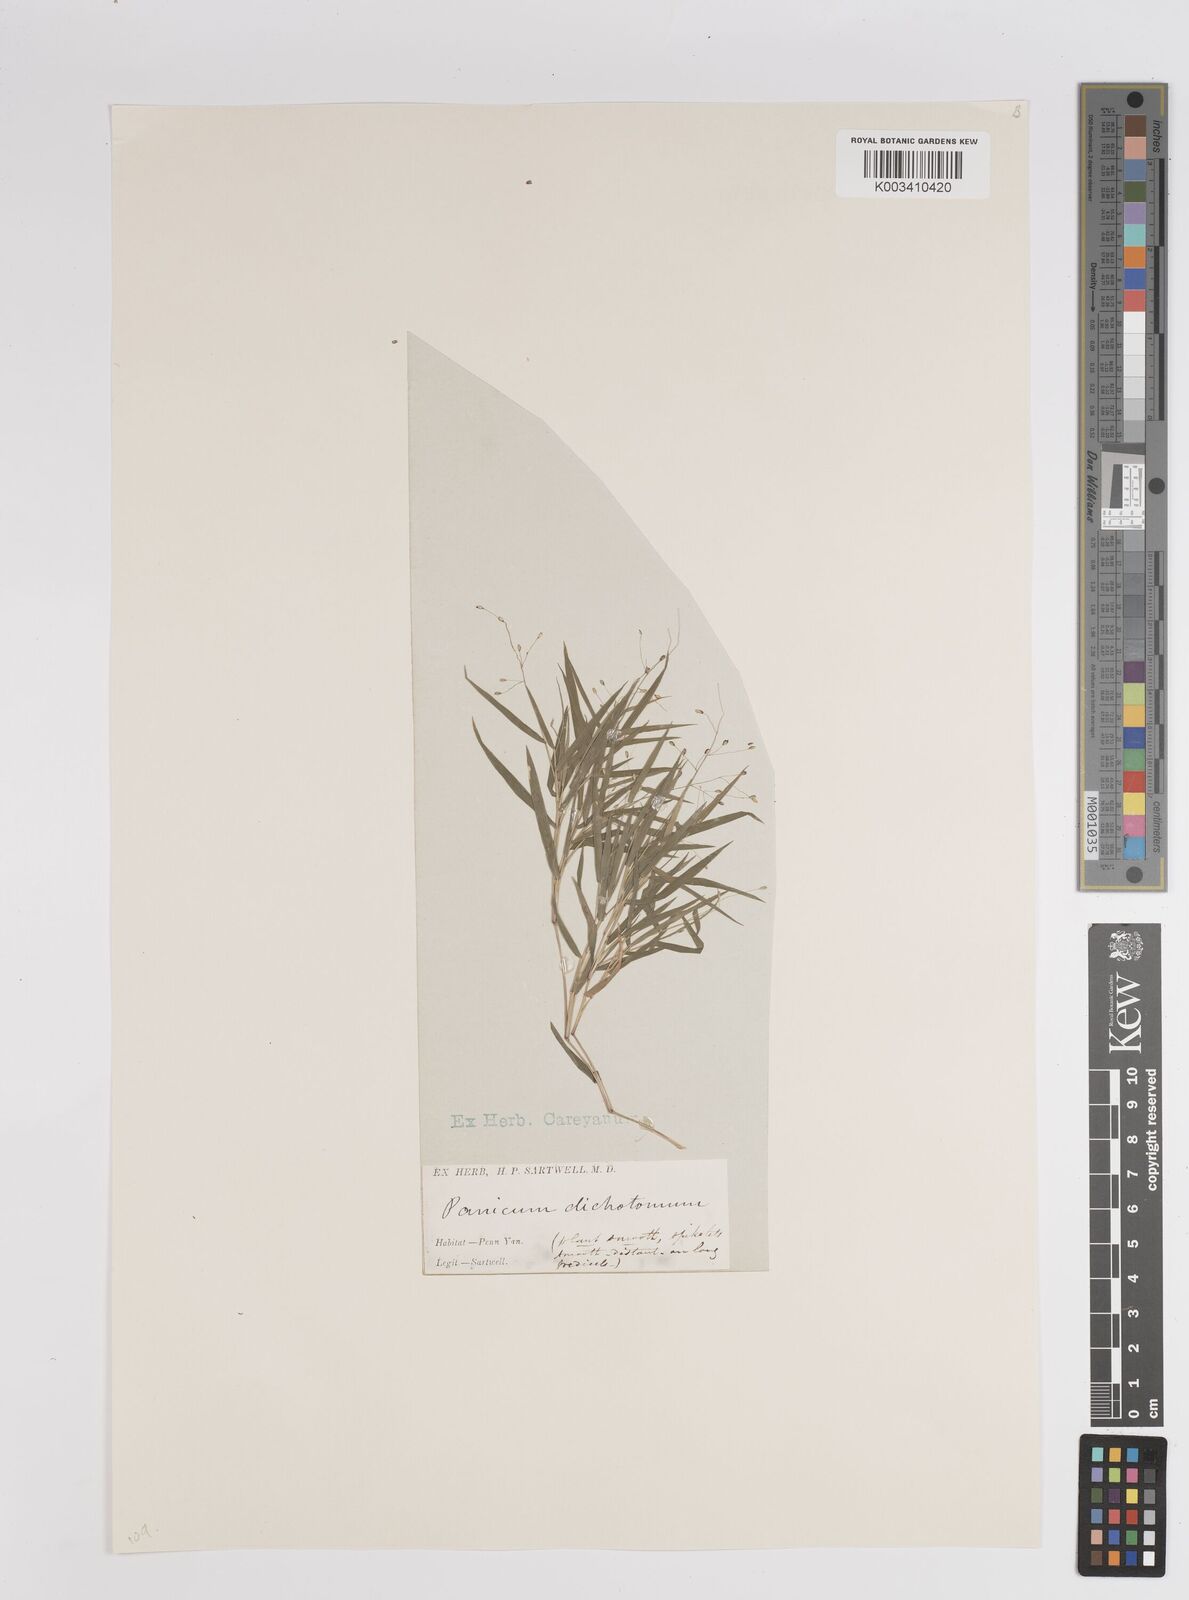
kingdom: Plantae
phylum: Tracheophyta
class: Liliopsida
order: Poales
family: Poaceae
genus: Dichanthelium
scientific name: Dichanthelium dichotomum
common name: Cypress panicgrass
